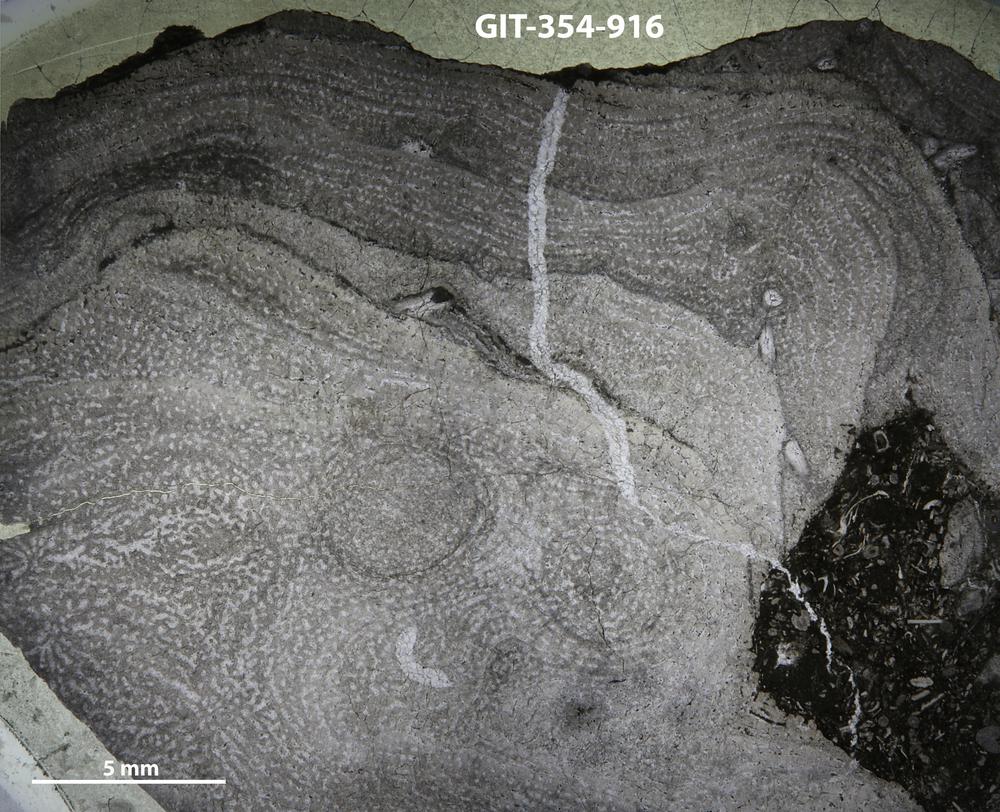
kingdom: Animalia
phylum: Porifera
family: Stromatoporidae
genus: Parallelostroma
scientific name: Parallelostroma
